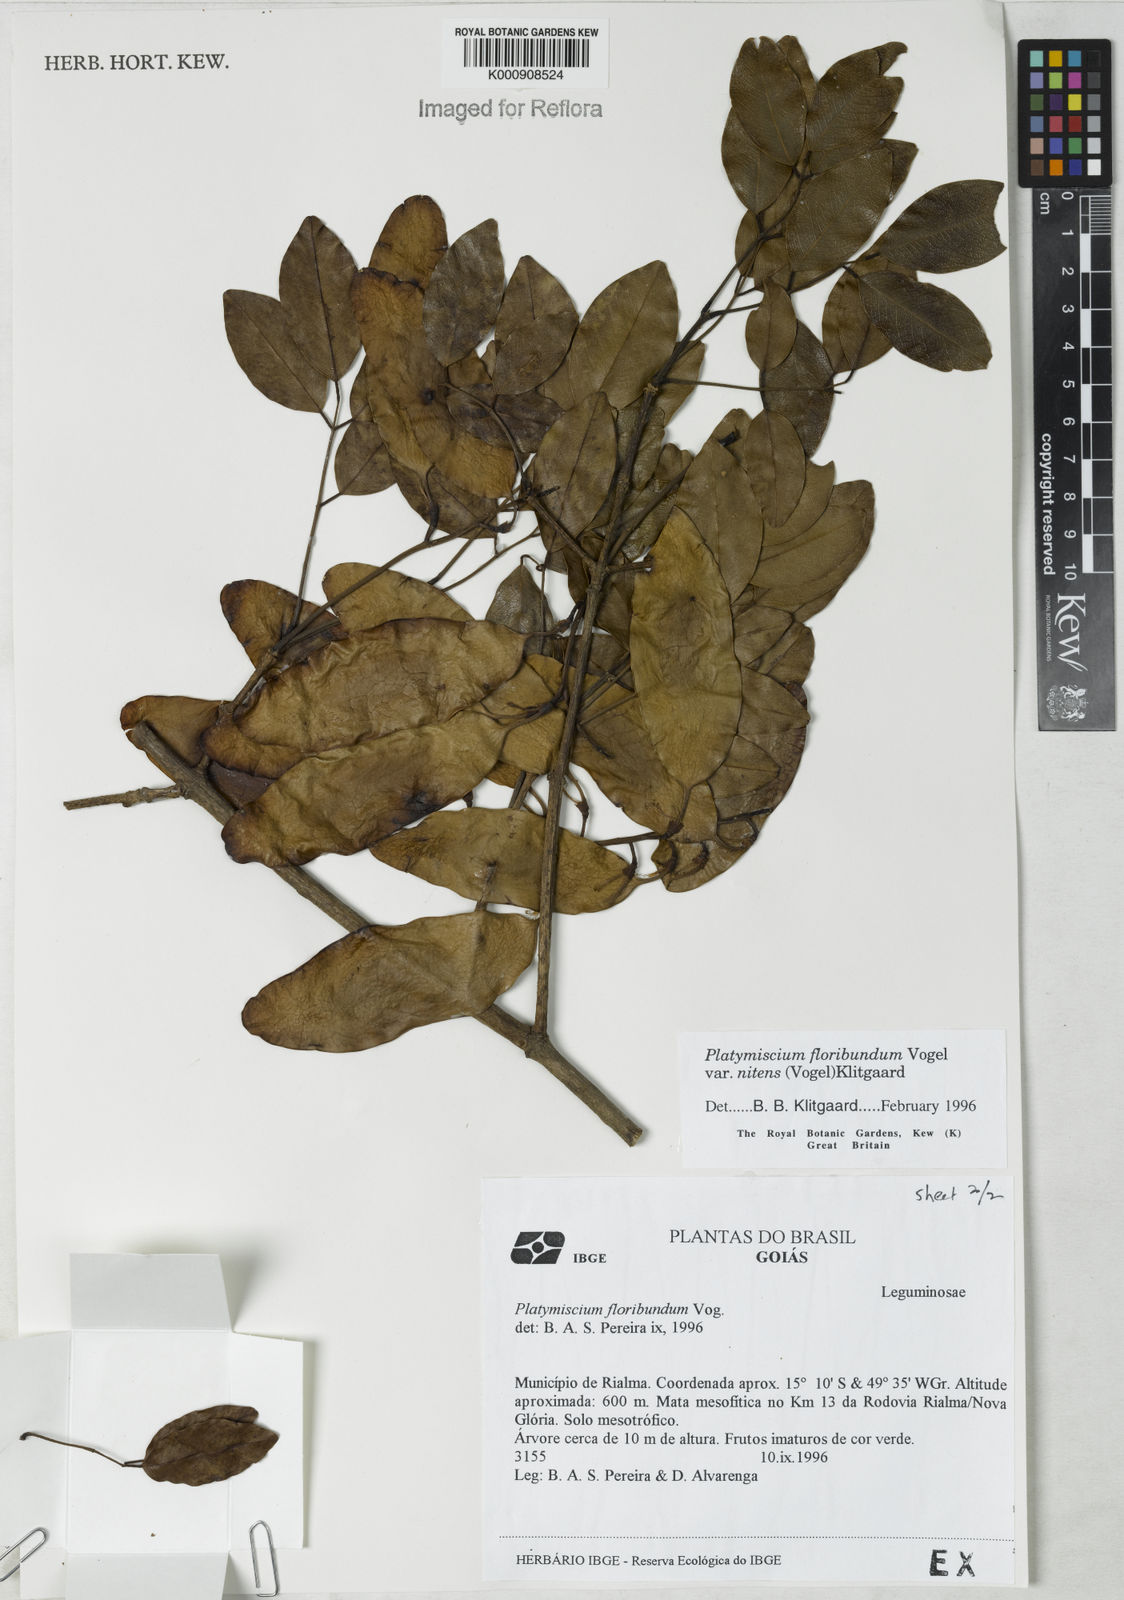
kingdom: Plantae
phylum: Tracheophyta
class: Magnoliopsida
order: Fabales
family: Fabaceae
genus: Platymiscium
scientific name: Platymiscium floribundum
